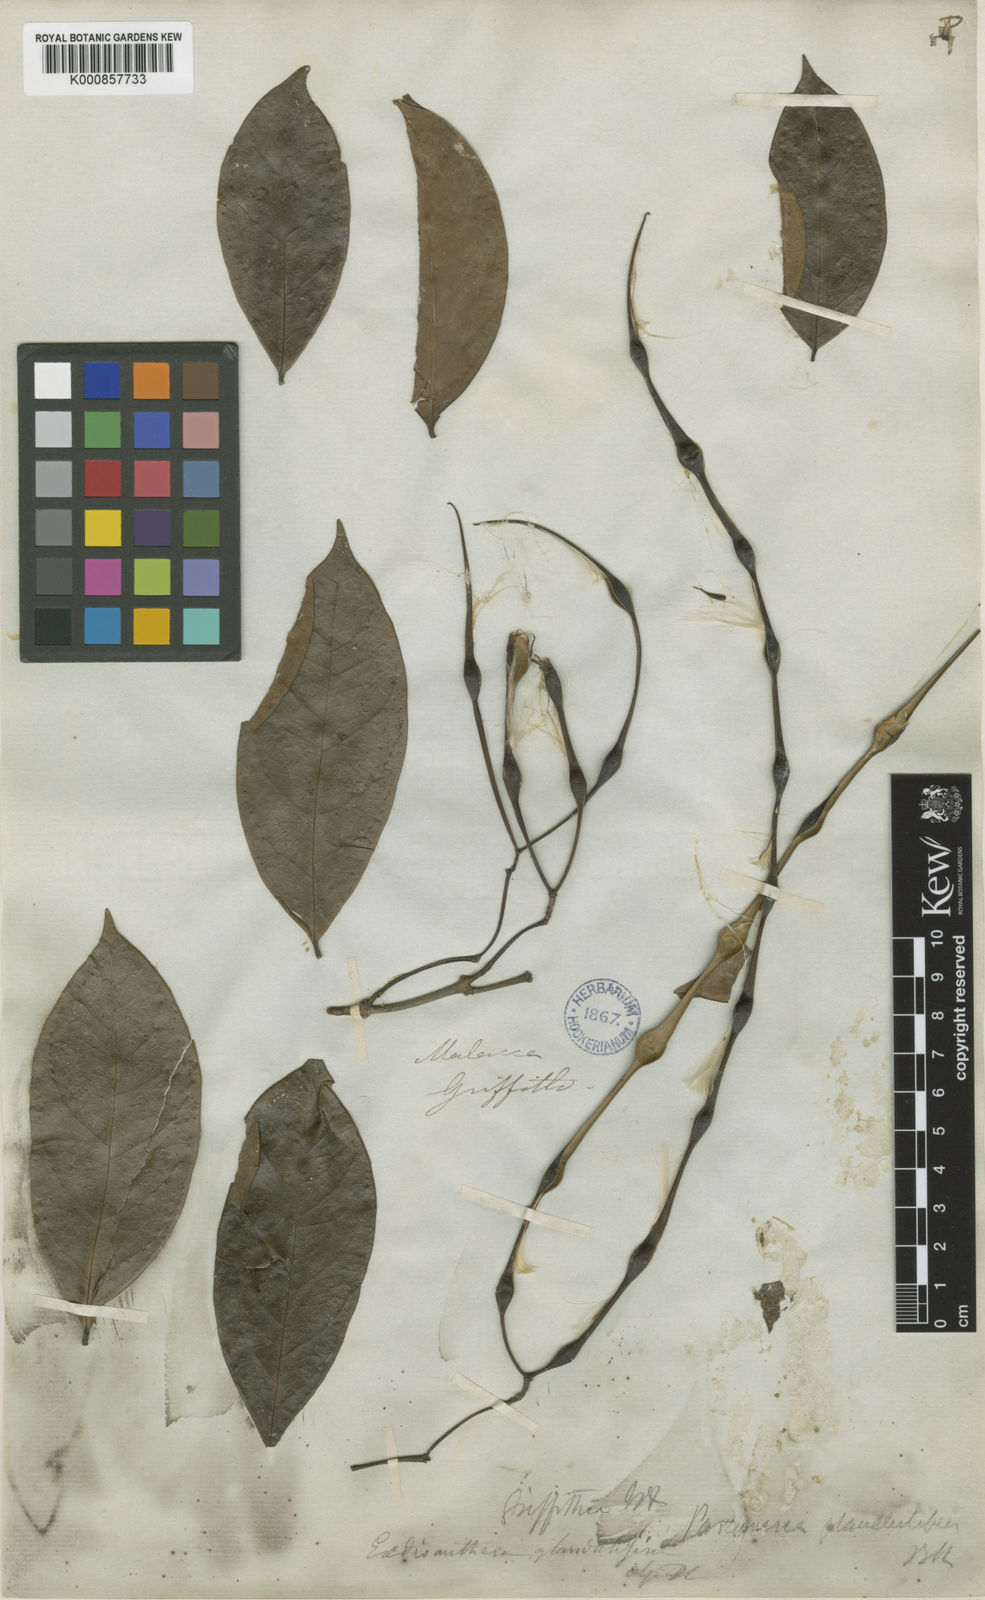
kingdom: Plantae
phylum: Tracheophyta
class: Magnoliopsida
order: Gentianales
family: Apocynaceae
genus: Urceola
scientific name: Urceola laevigata
